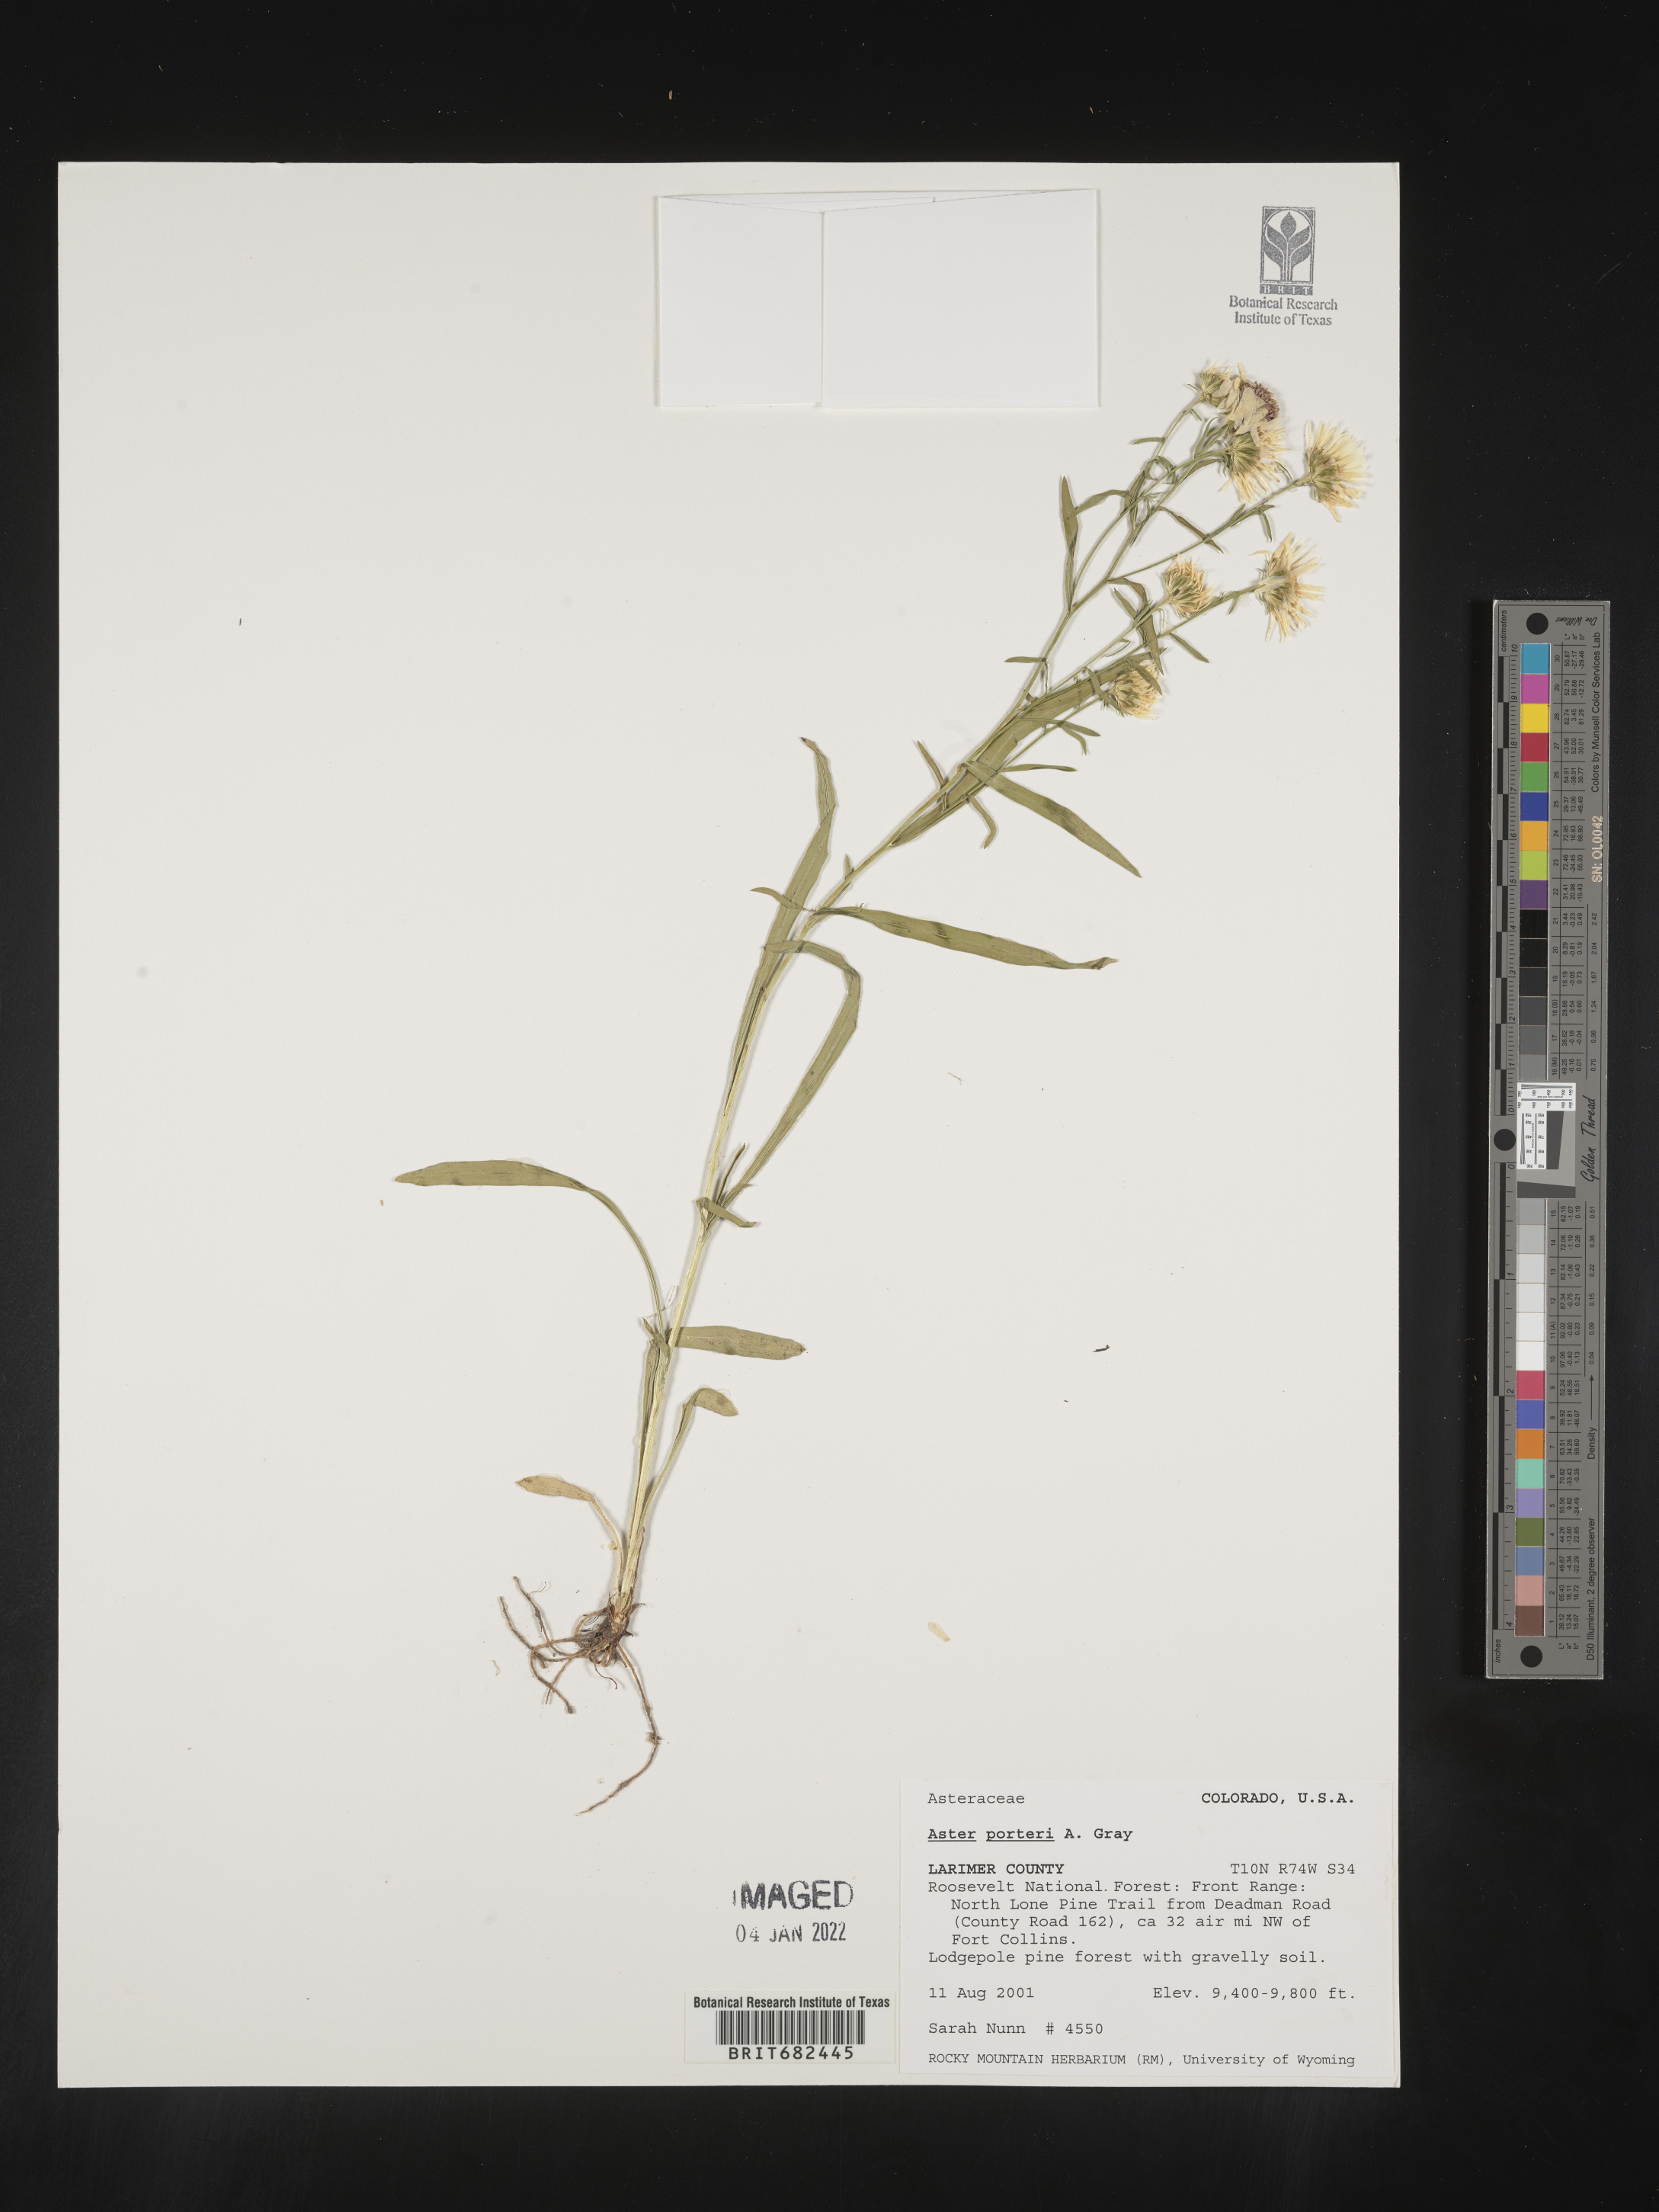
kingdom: Plantae
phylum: Tracheophyta
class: Magnoliopsida
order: Asterales
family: Asteraceae
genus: Aster
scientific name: Aster
